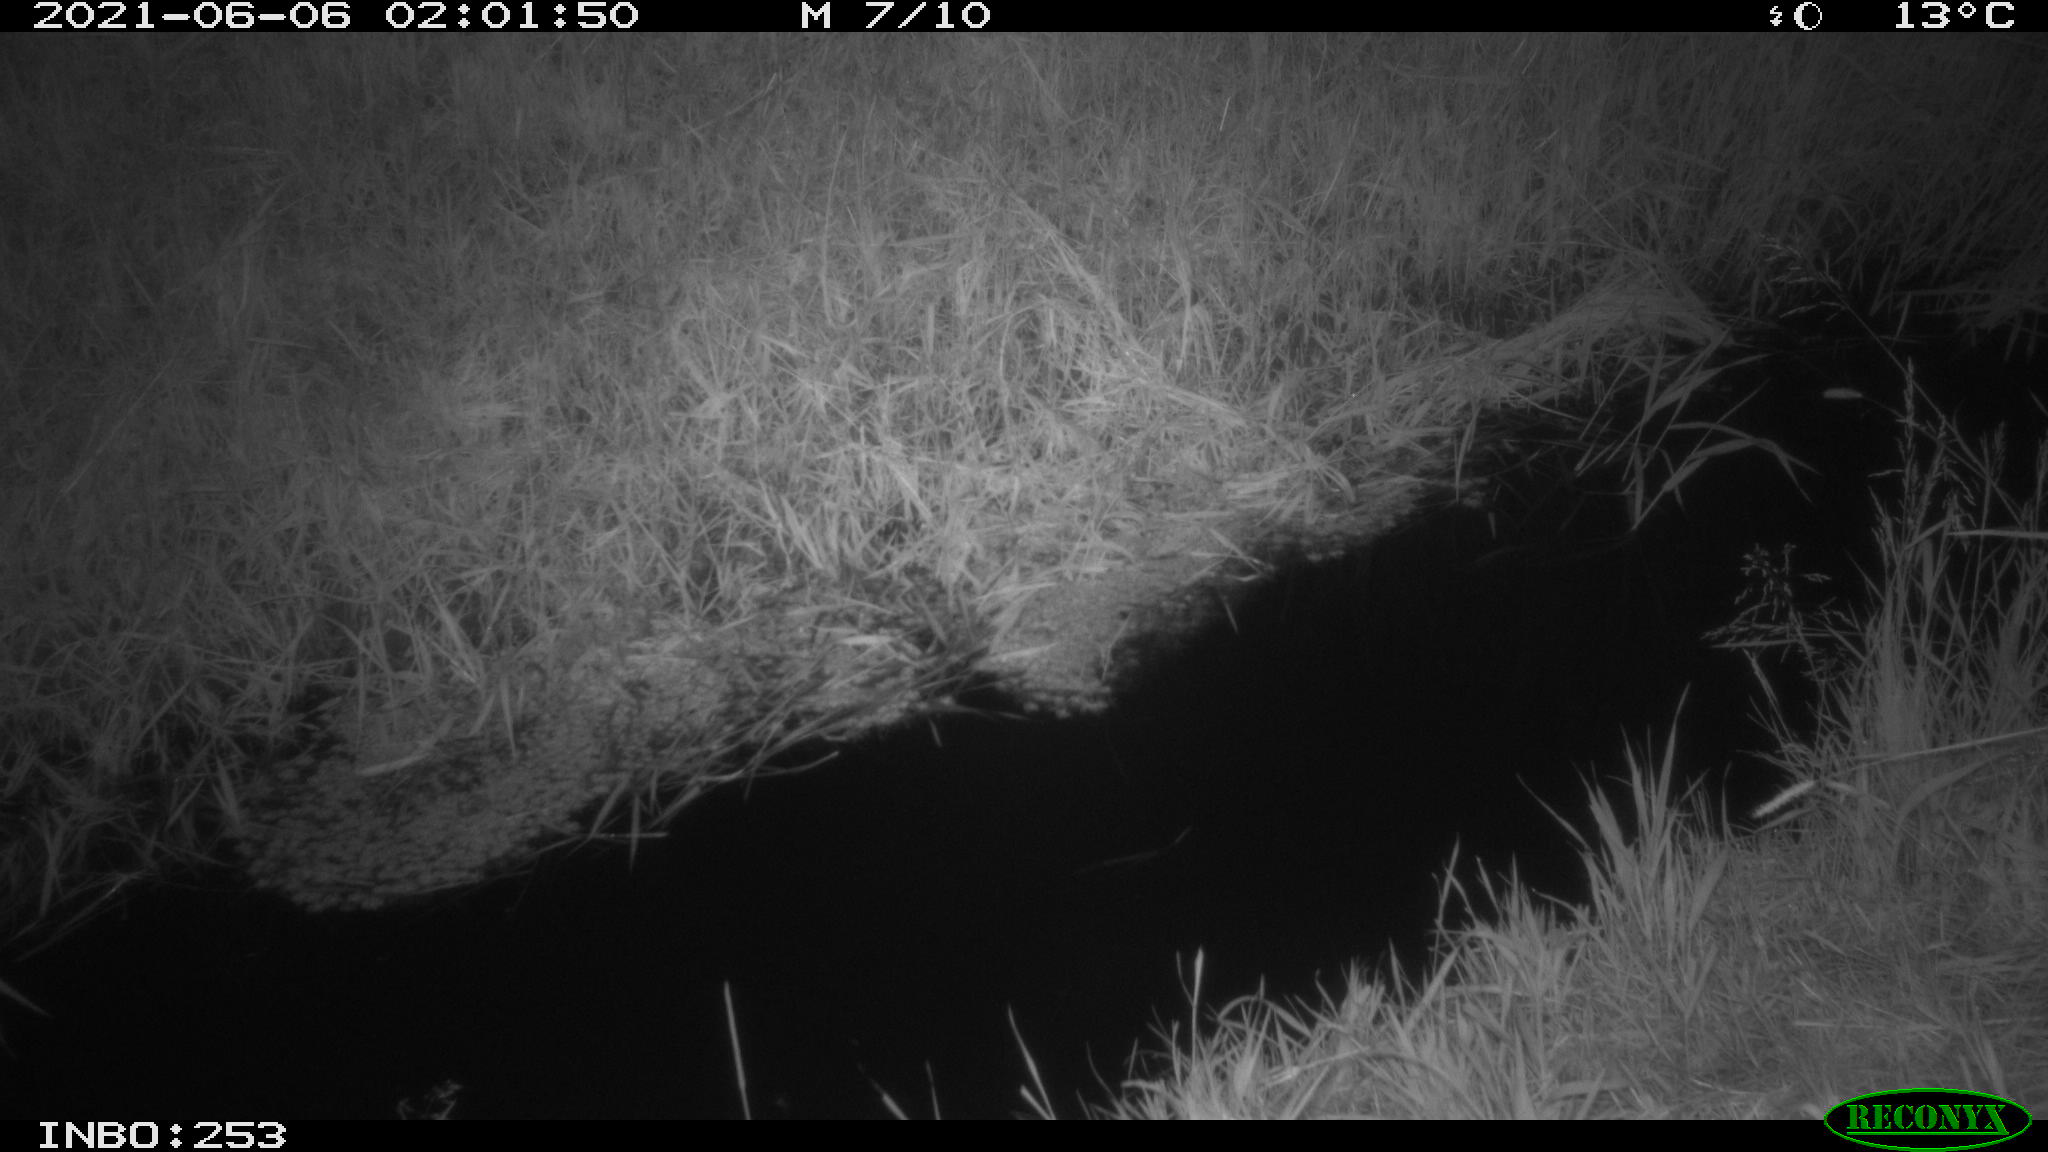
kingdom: Animalia
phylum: Chordata
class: Mammalia
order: Carnivora
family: Mustelidae
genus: Martes
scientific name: Martes foina
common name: Beech marten
